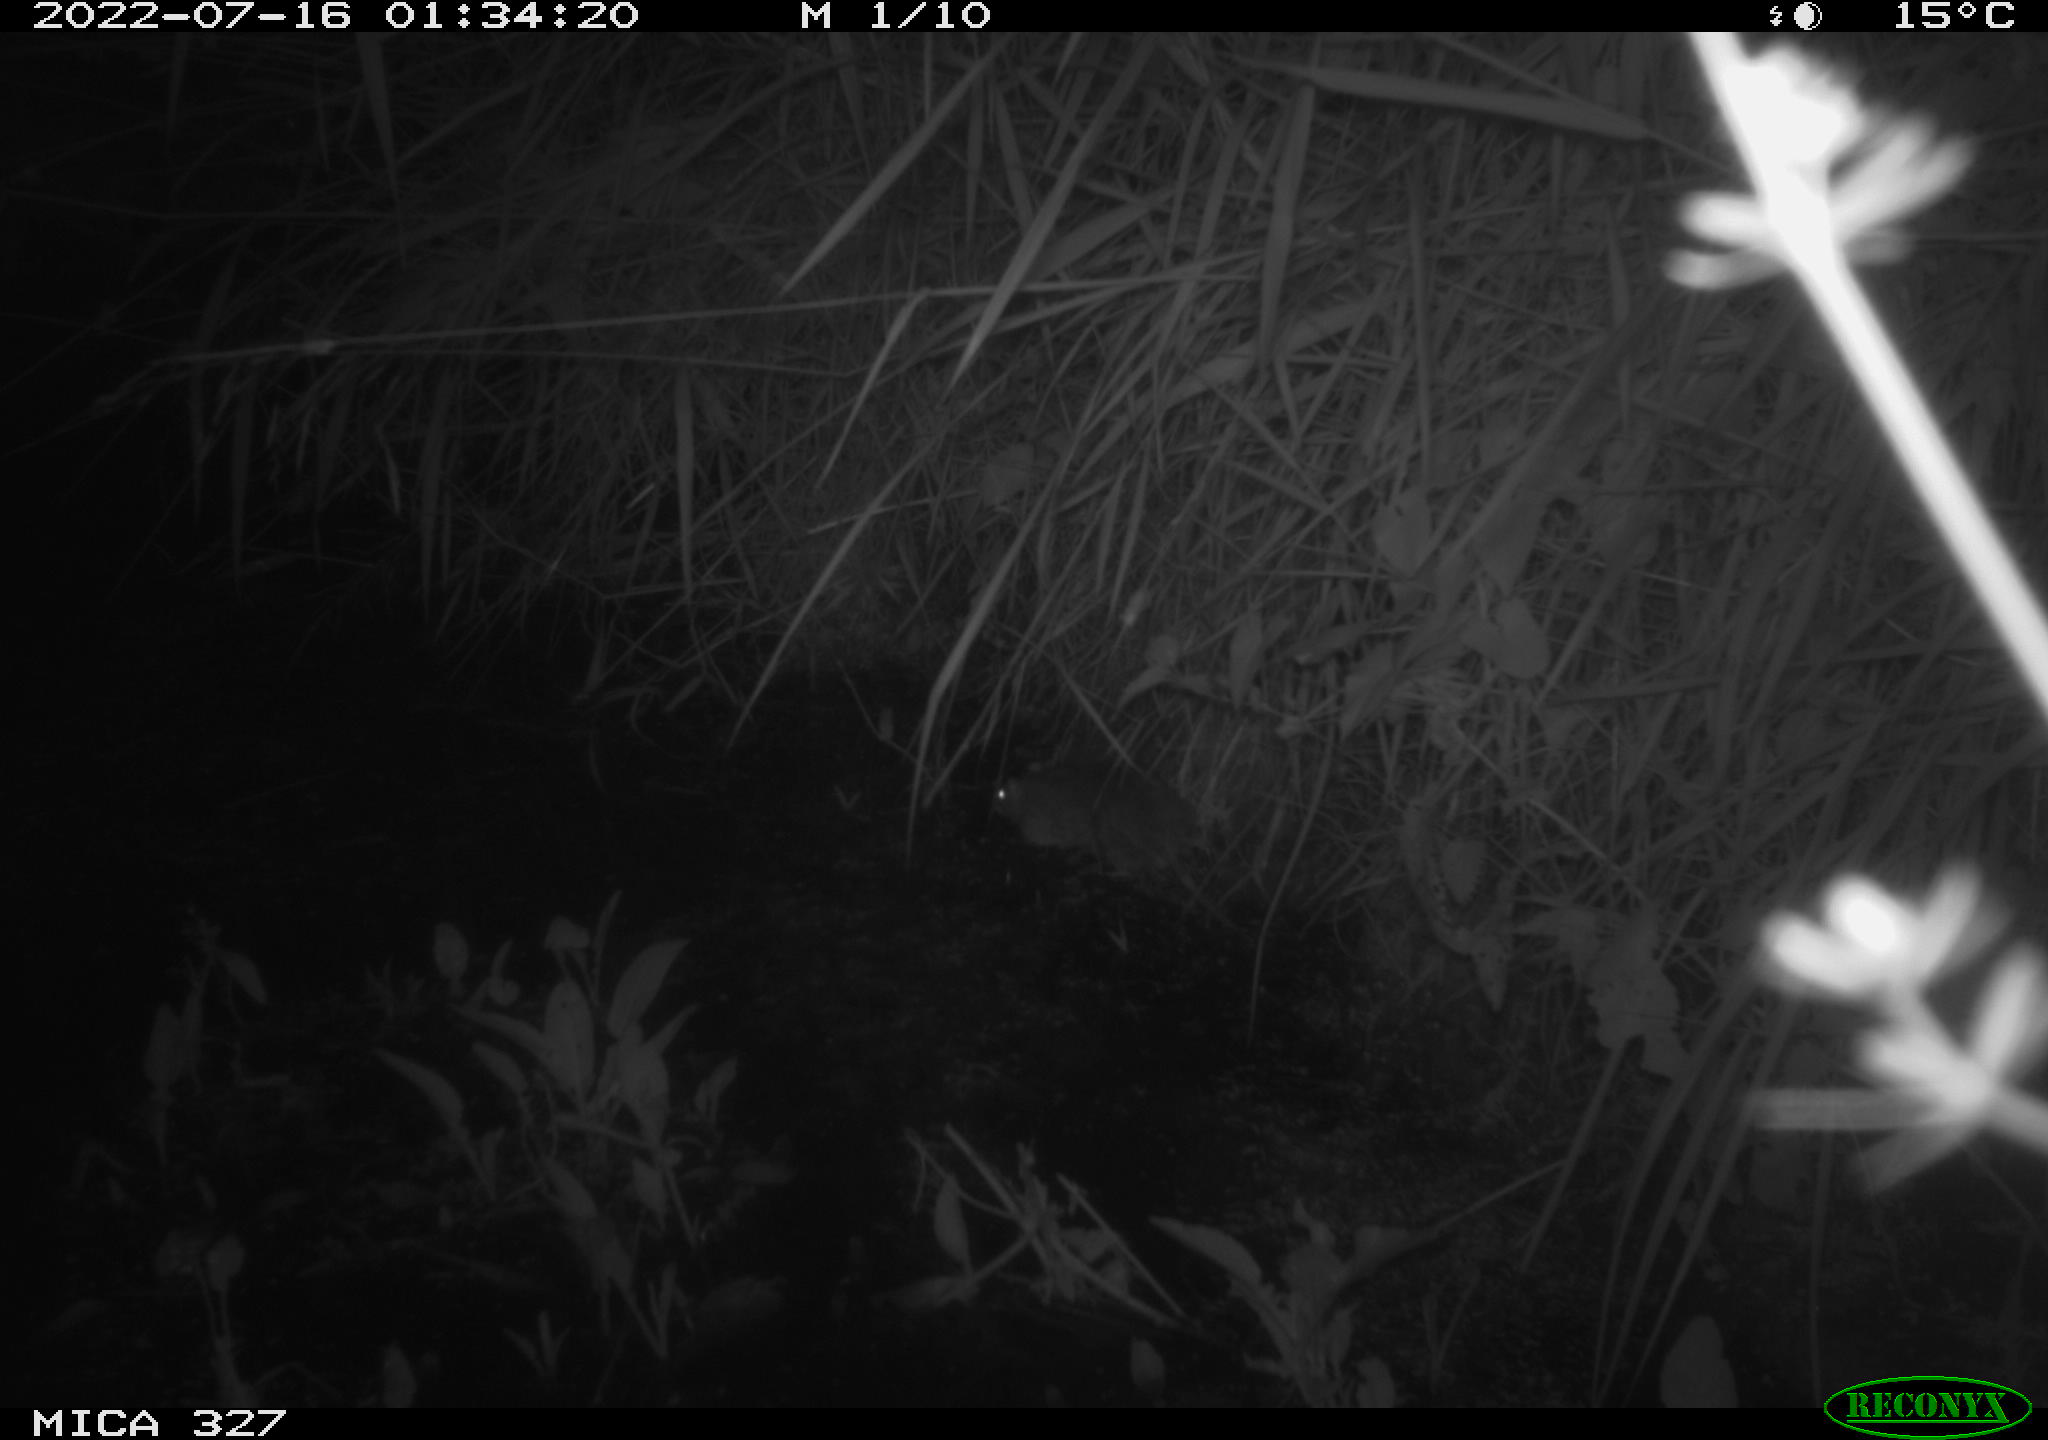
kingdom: Animalia
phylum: Chordata
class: Mammalia
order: Rodentia
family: Muridae
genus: Rattus
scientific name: Rattus norvegicus
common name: Brown rat
